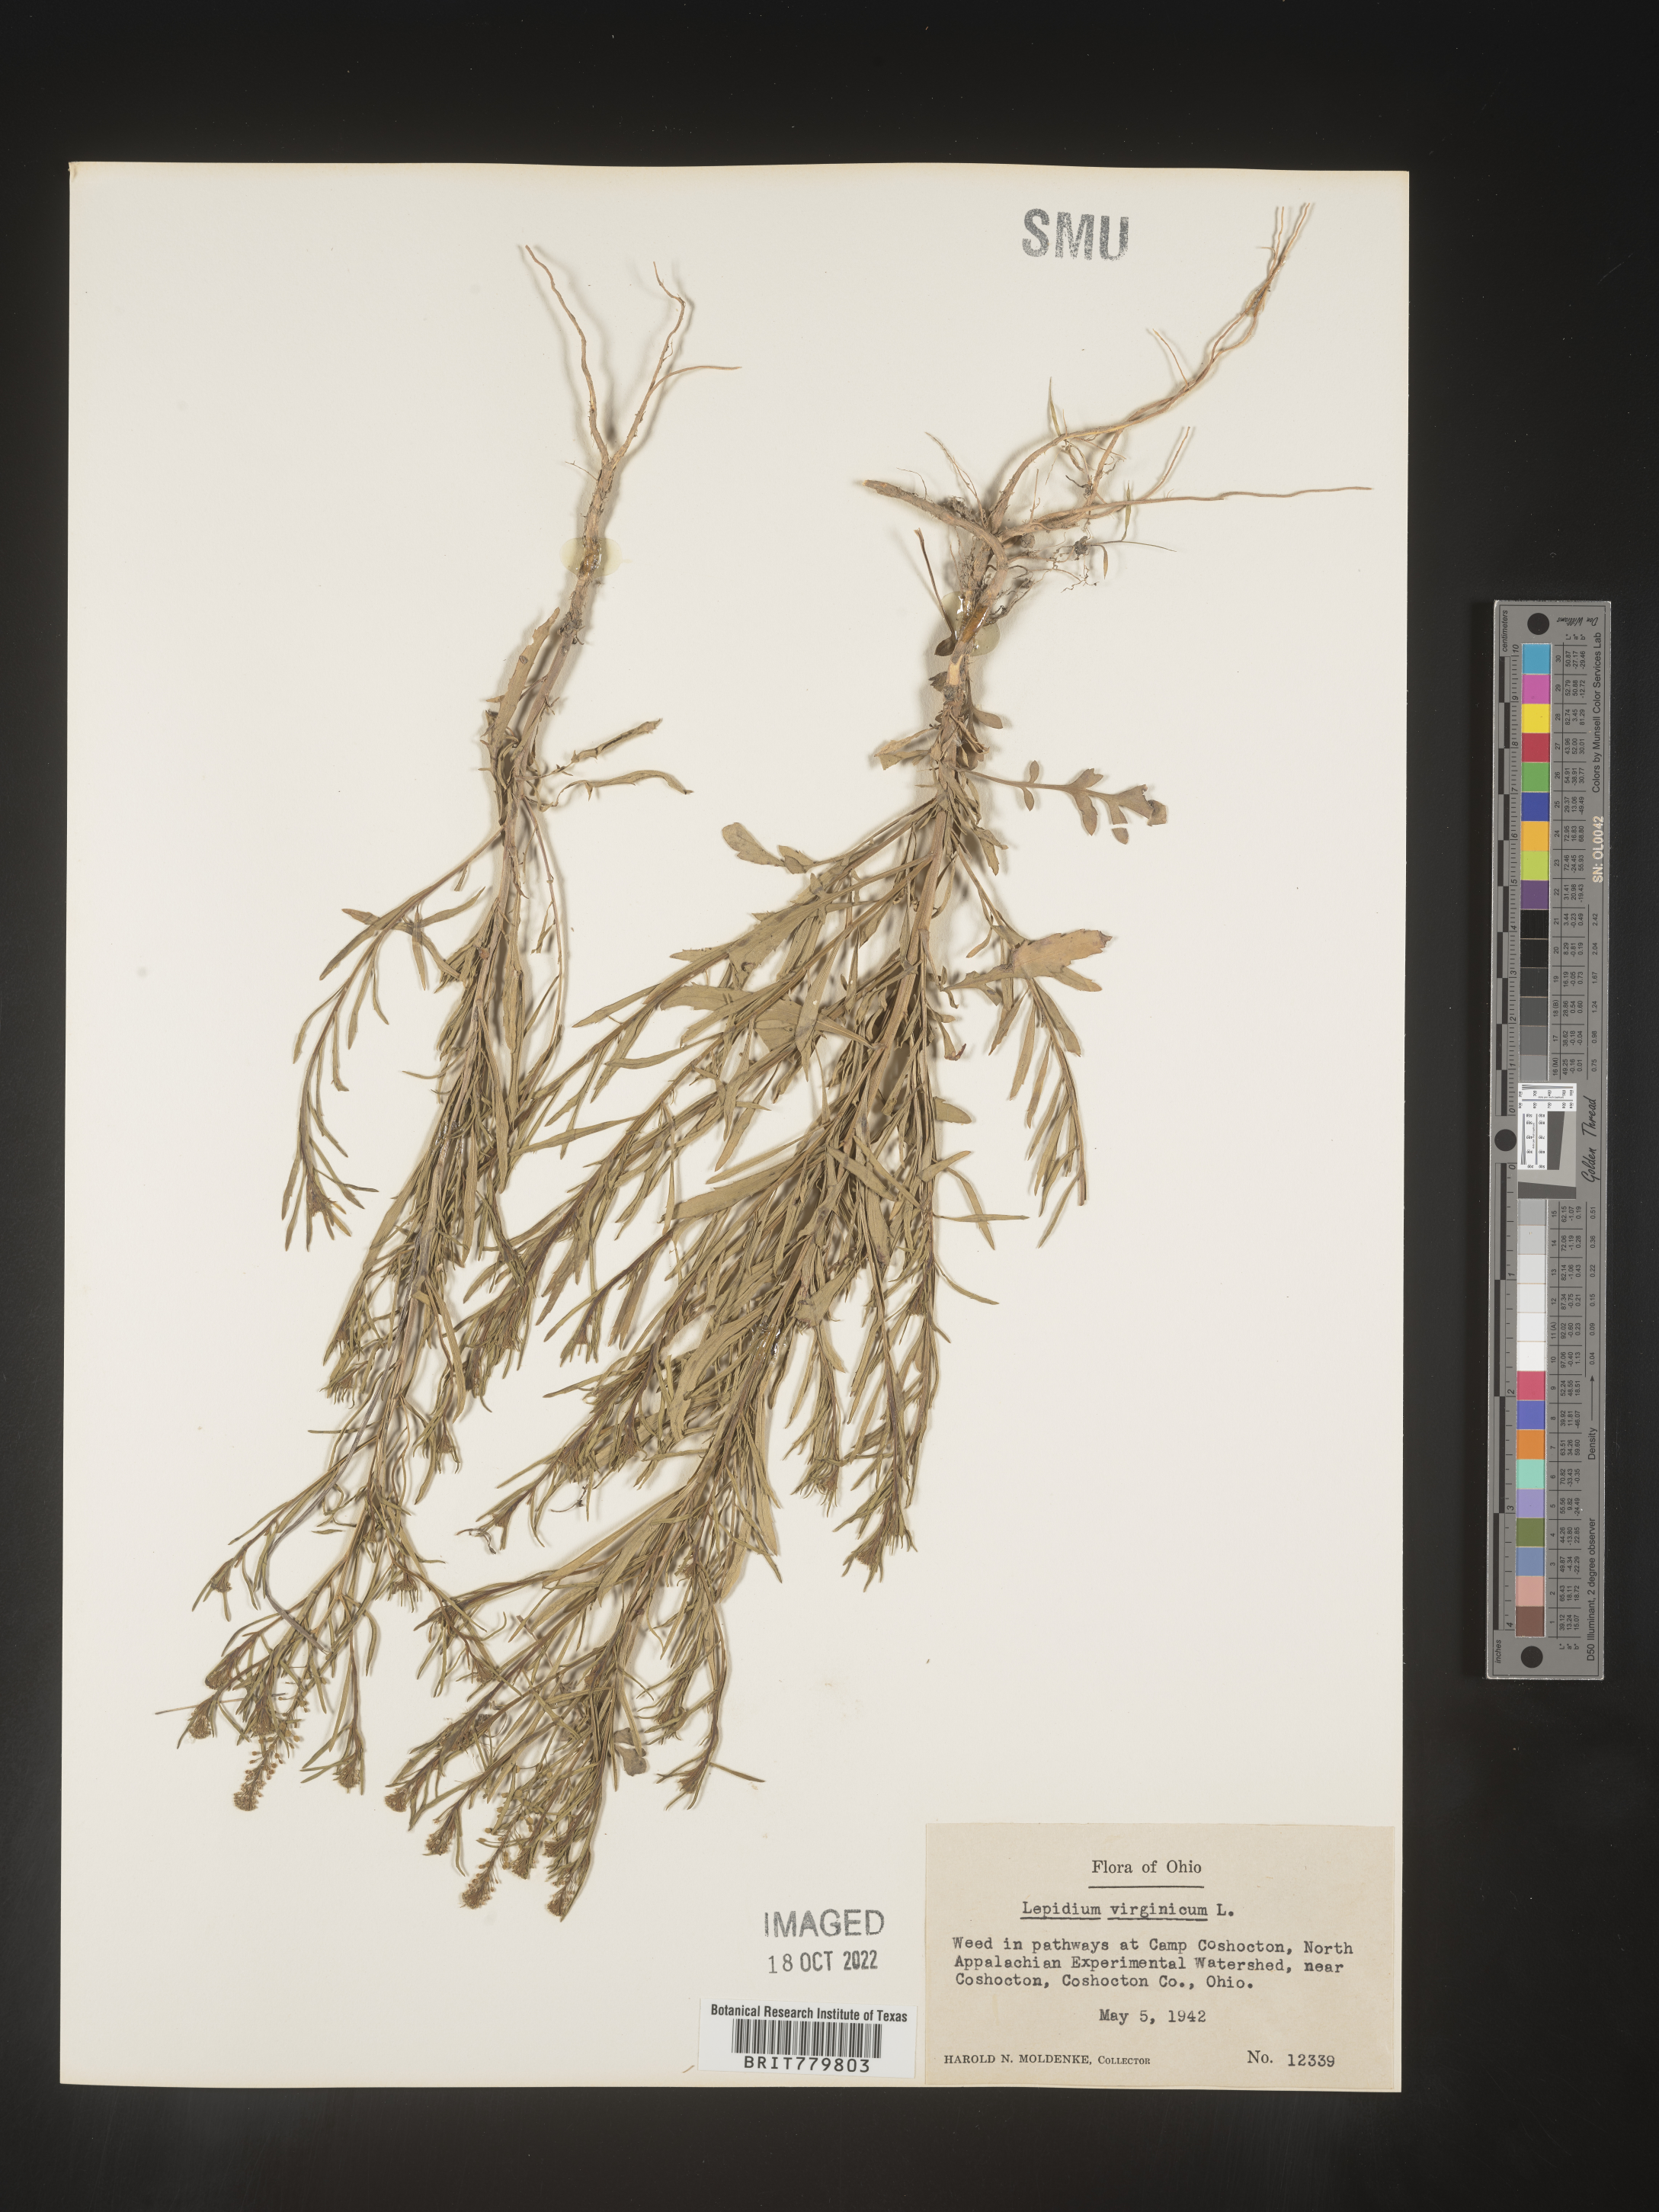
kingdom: Plantae
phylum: Tracheophyta
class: Magnoliopsida
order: Brassicales
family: Brassicaceae
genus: Lepidium
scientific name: Lepidium virginicum
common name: Least pepperwort
